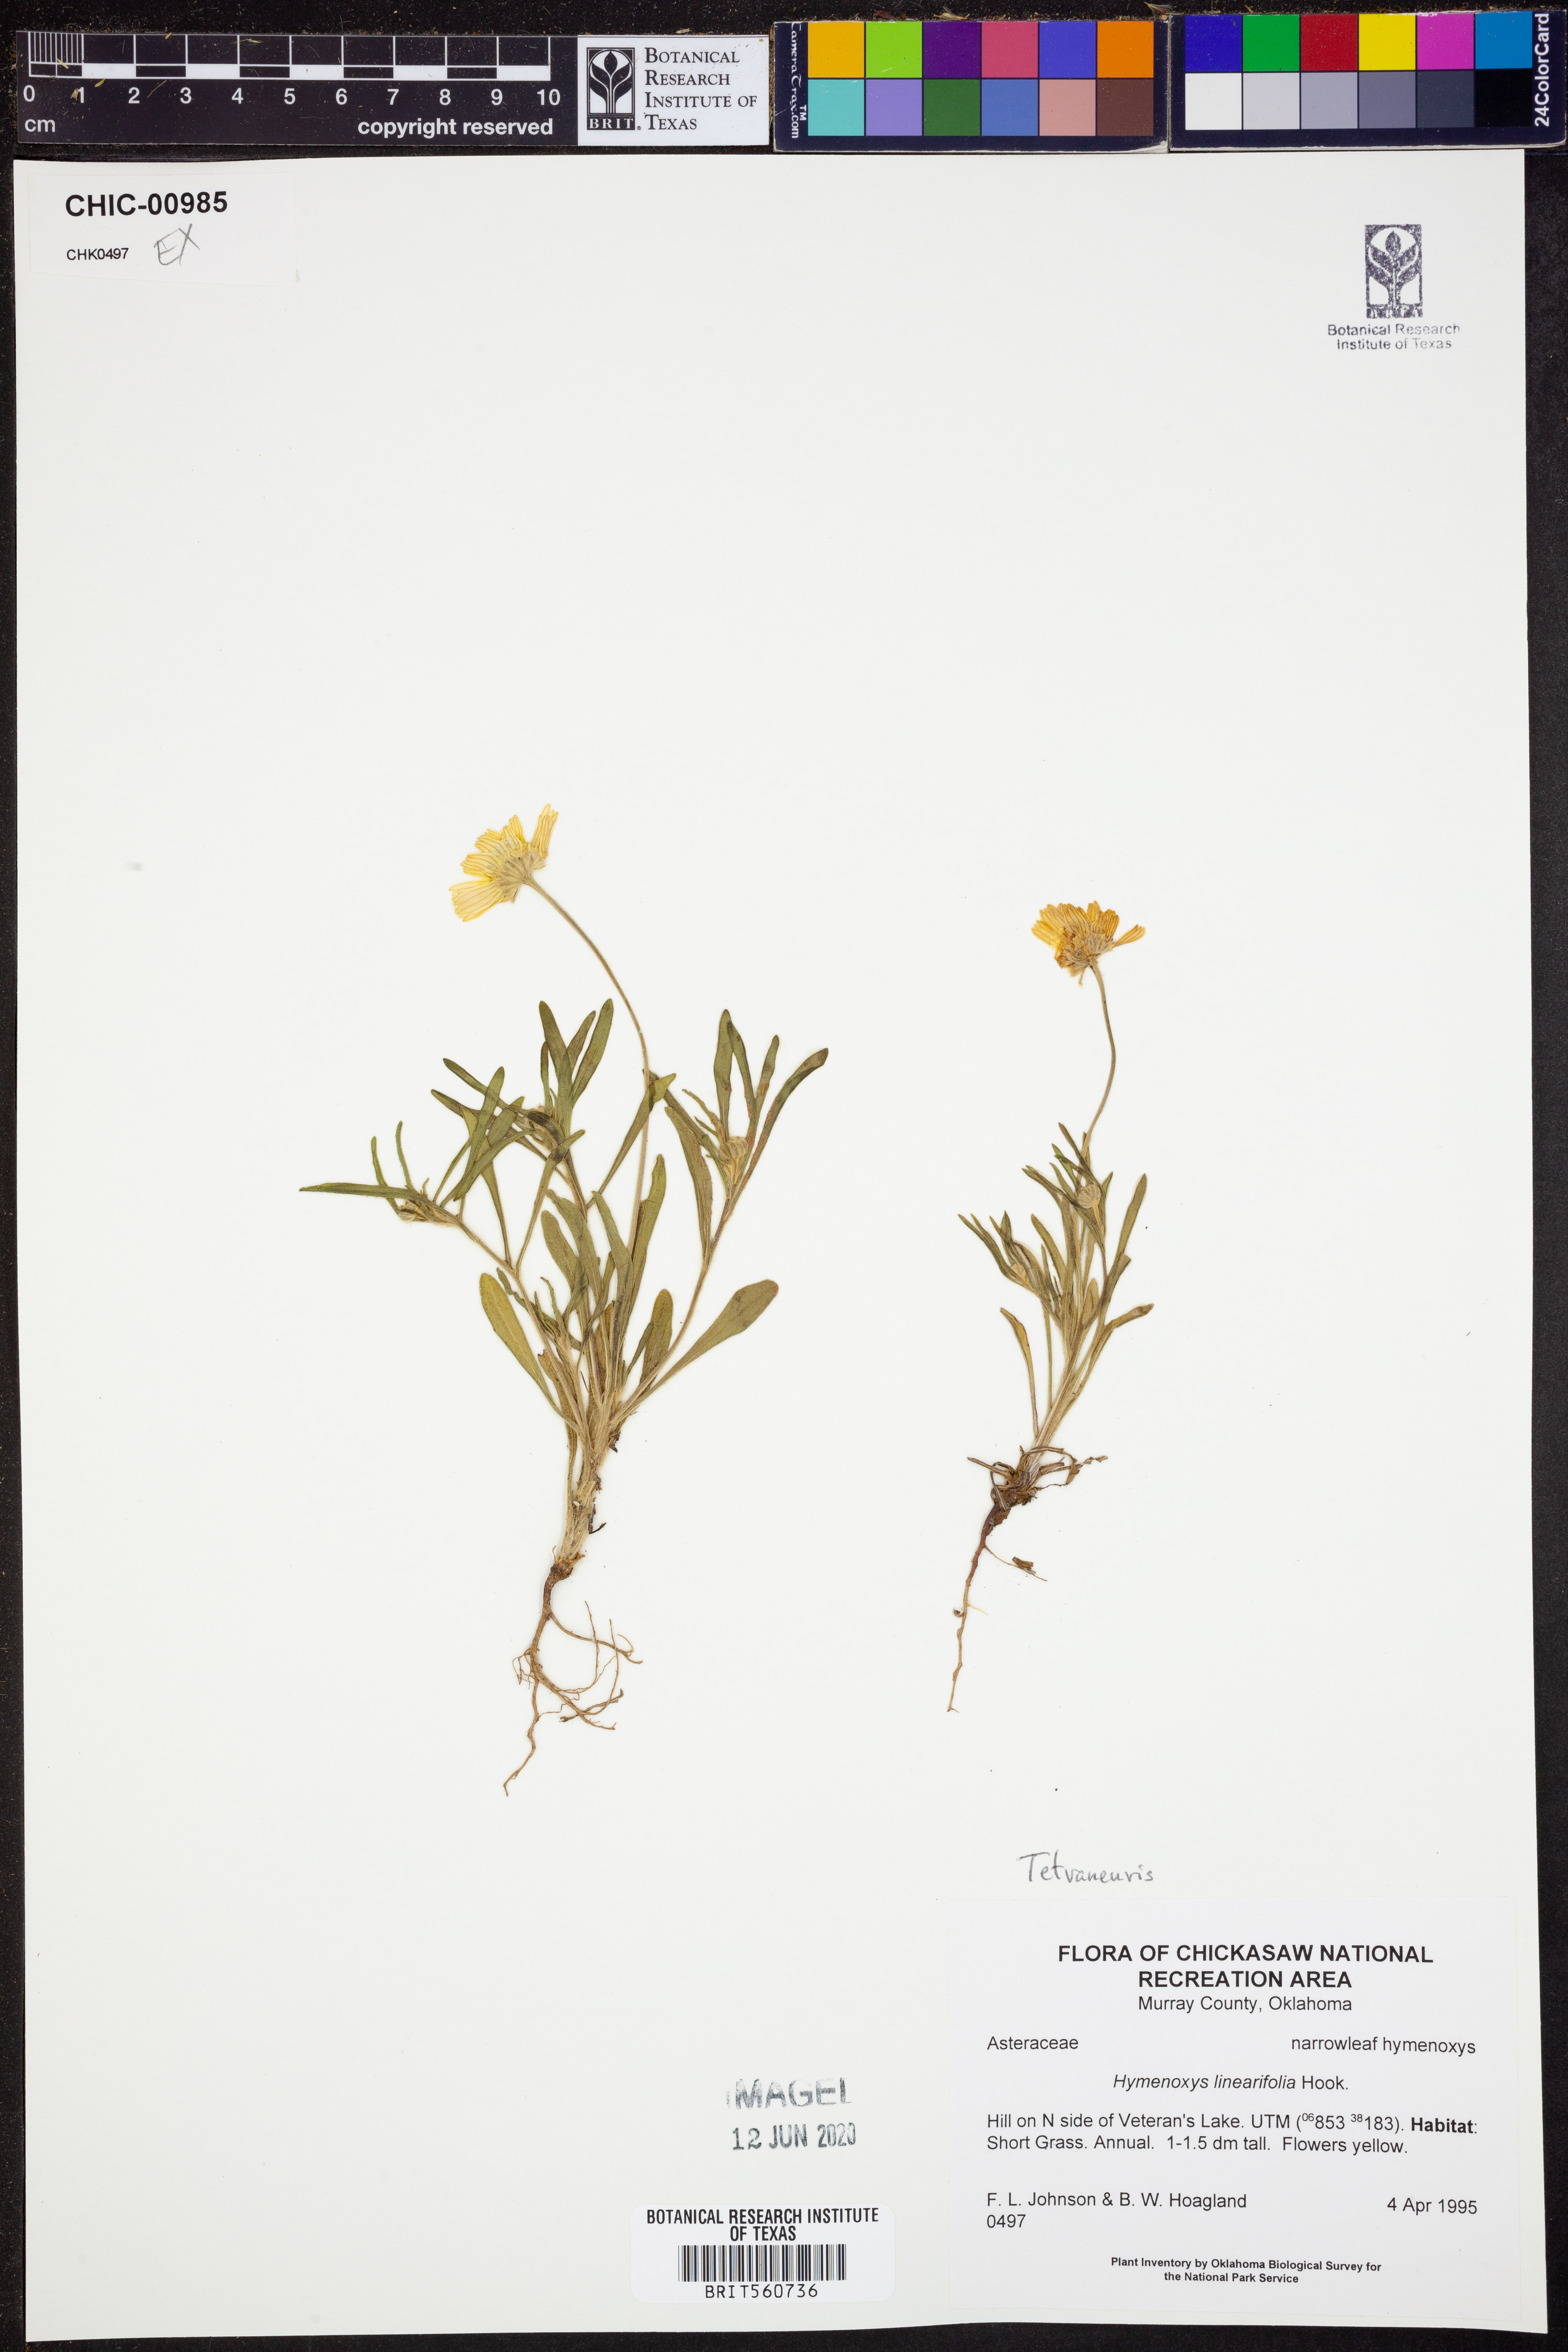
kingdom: Plantae
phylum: Tracheophyta
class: Magnoliopsida
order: Asterales
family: Asteraceae
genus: Tetraneuris
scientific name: Tetraneuris linearifolia
